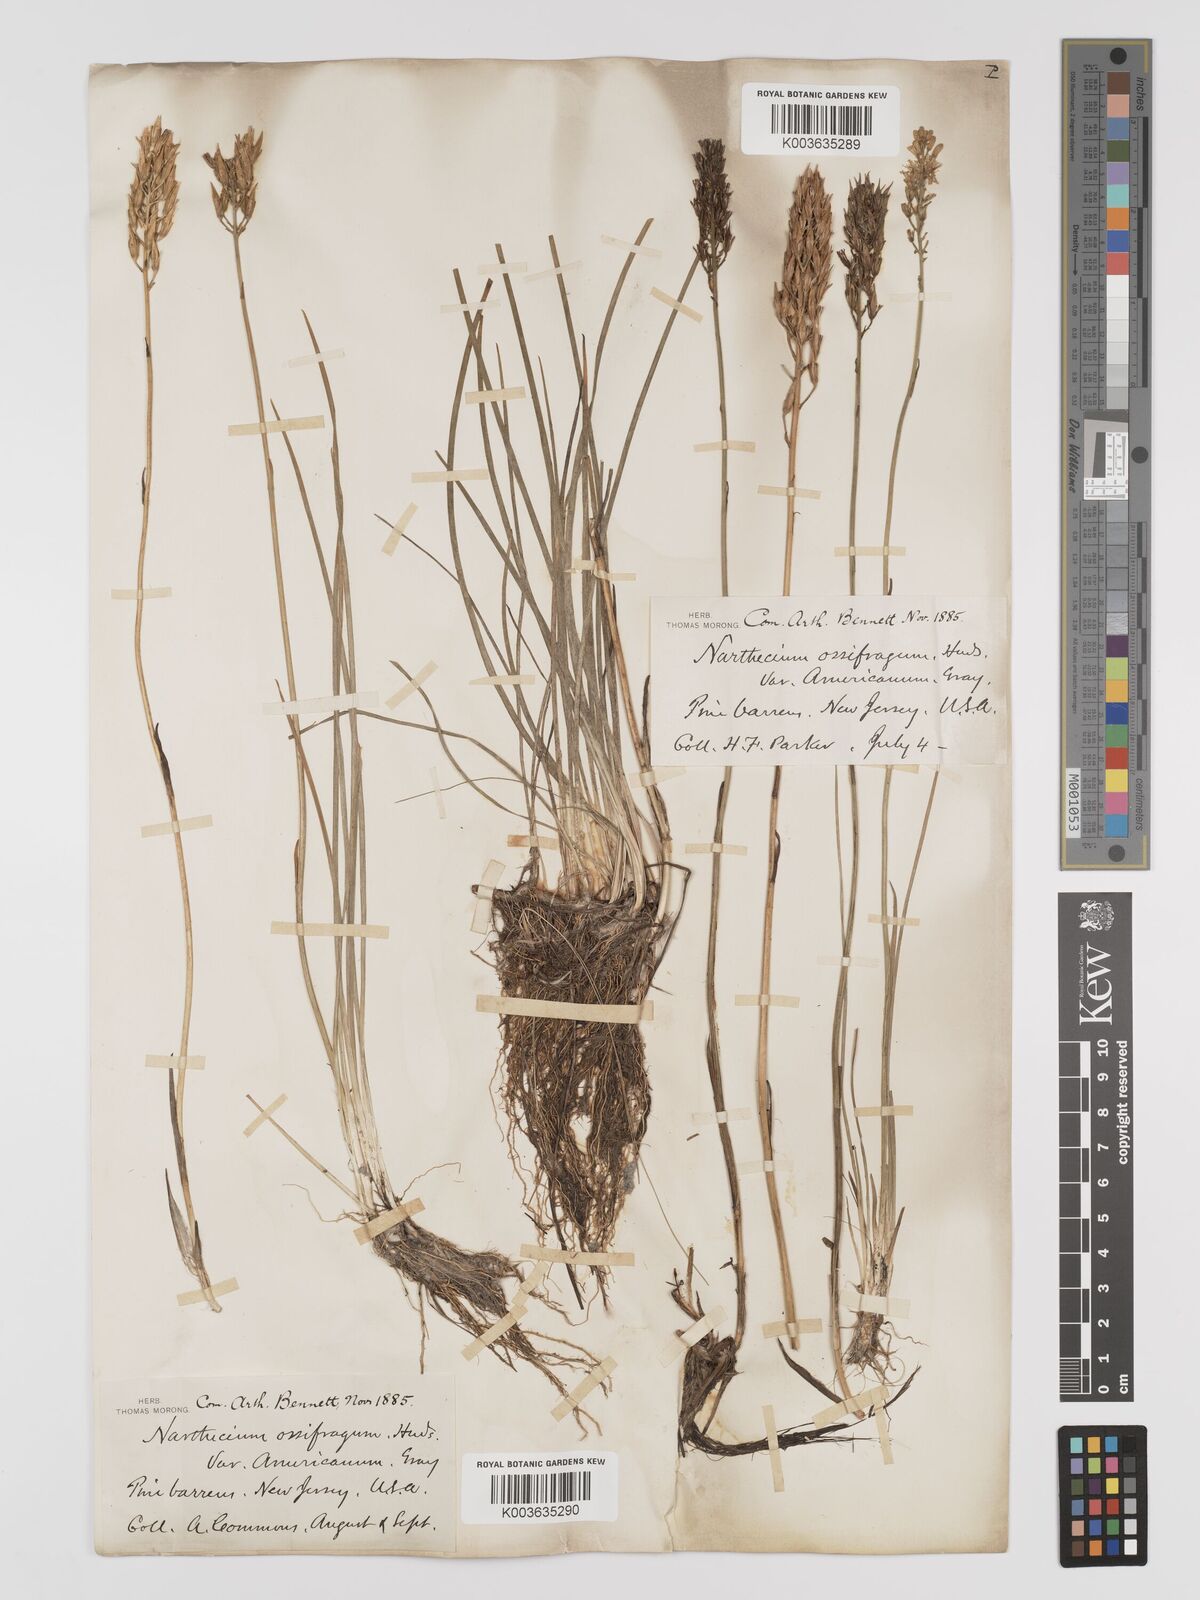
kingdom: Plantae
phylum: Tracheophyta
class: Liliopsida
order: Dioscoreales
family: Nartheciaceae
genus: Narthecium
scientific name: Narthecium americanum
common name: Bog-asphodel
